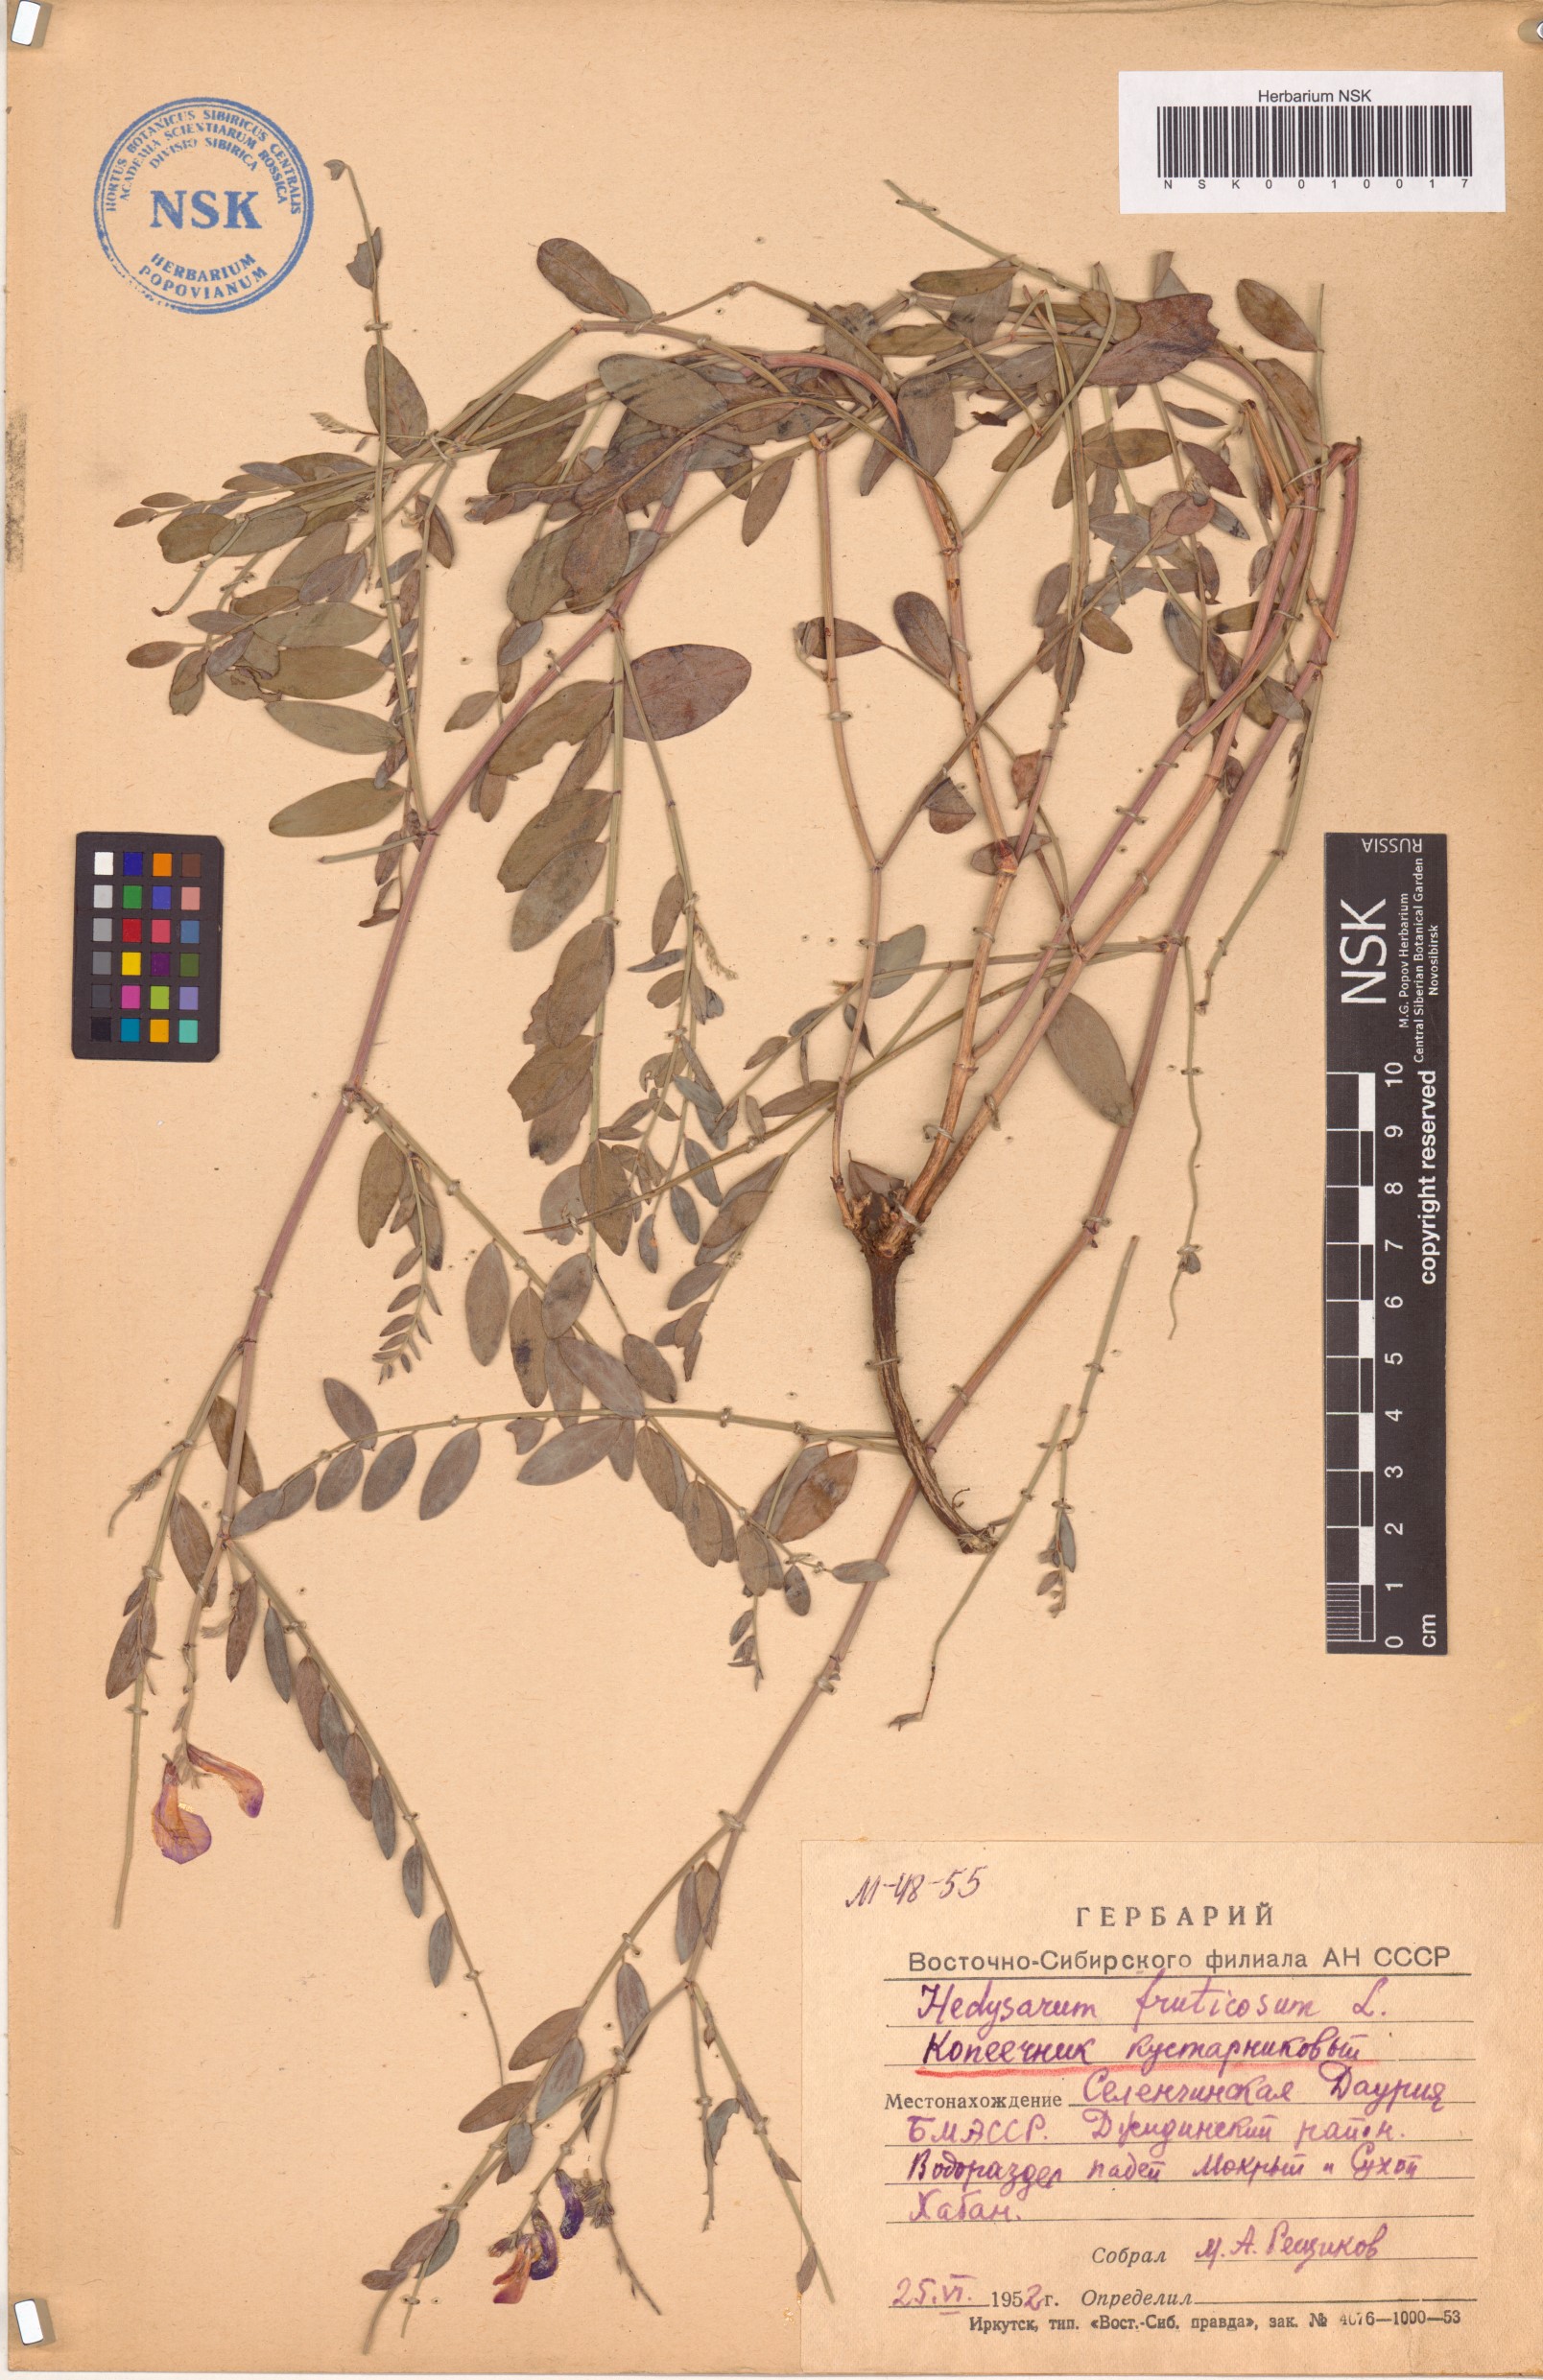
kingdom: Plantae
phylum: Tracheophyta
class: Magnoliopsida
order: Fabales
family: Fabaceae
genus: Corethrodendron
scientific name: Corethrodendron fruticosum
